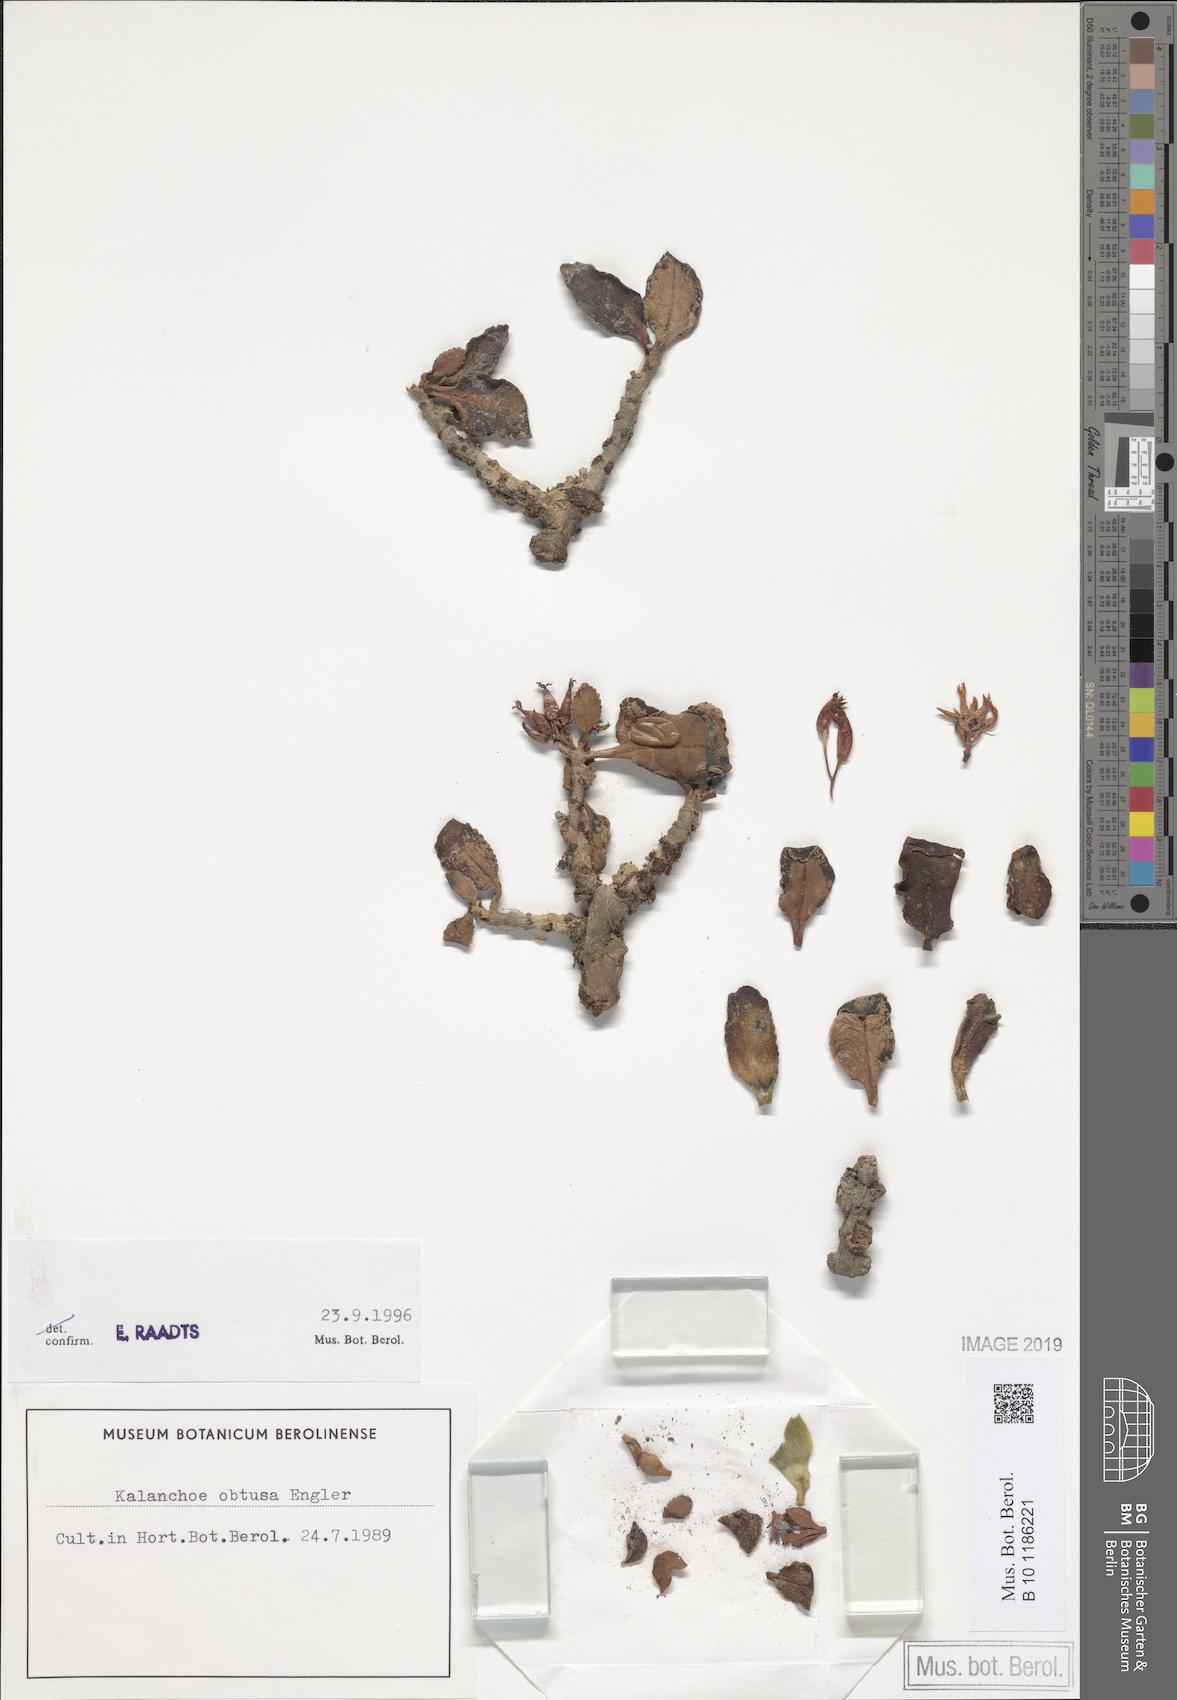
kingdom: Plantae
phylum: Tracheophyta
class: Magnoliopsida
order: Saxifragales
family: Crassulaceae
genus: Kalanchoe
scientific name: Kalanchoe obtusa
